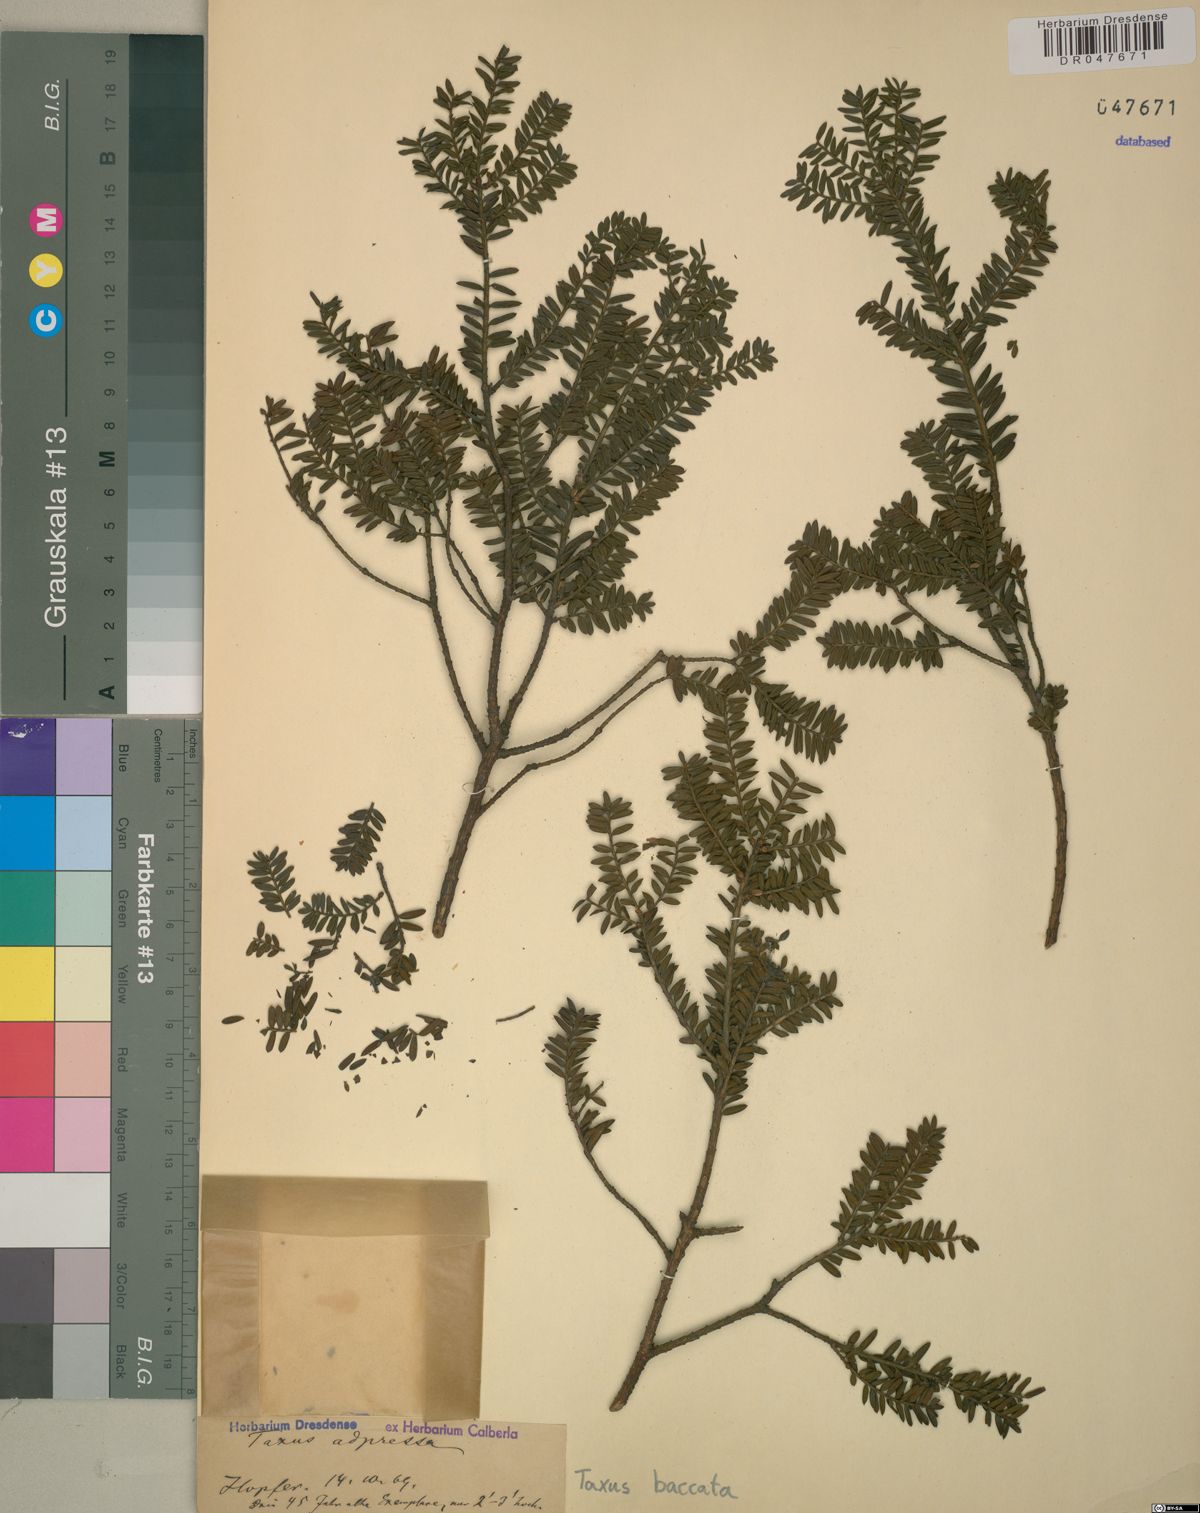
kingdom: Plantae
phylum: Tracheophyta
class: Pinopsida
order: Pinales
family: Taxaceae
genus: Taxus
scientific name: Taxus baccata
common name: Yew
